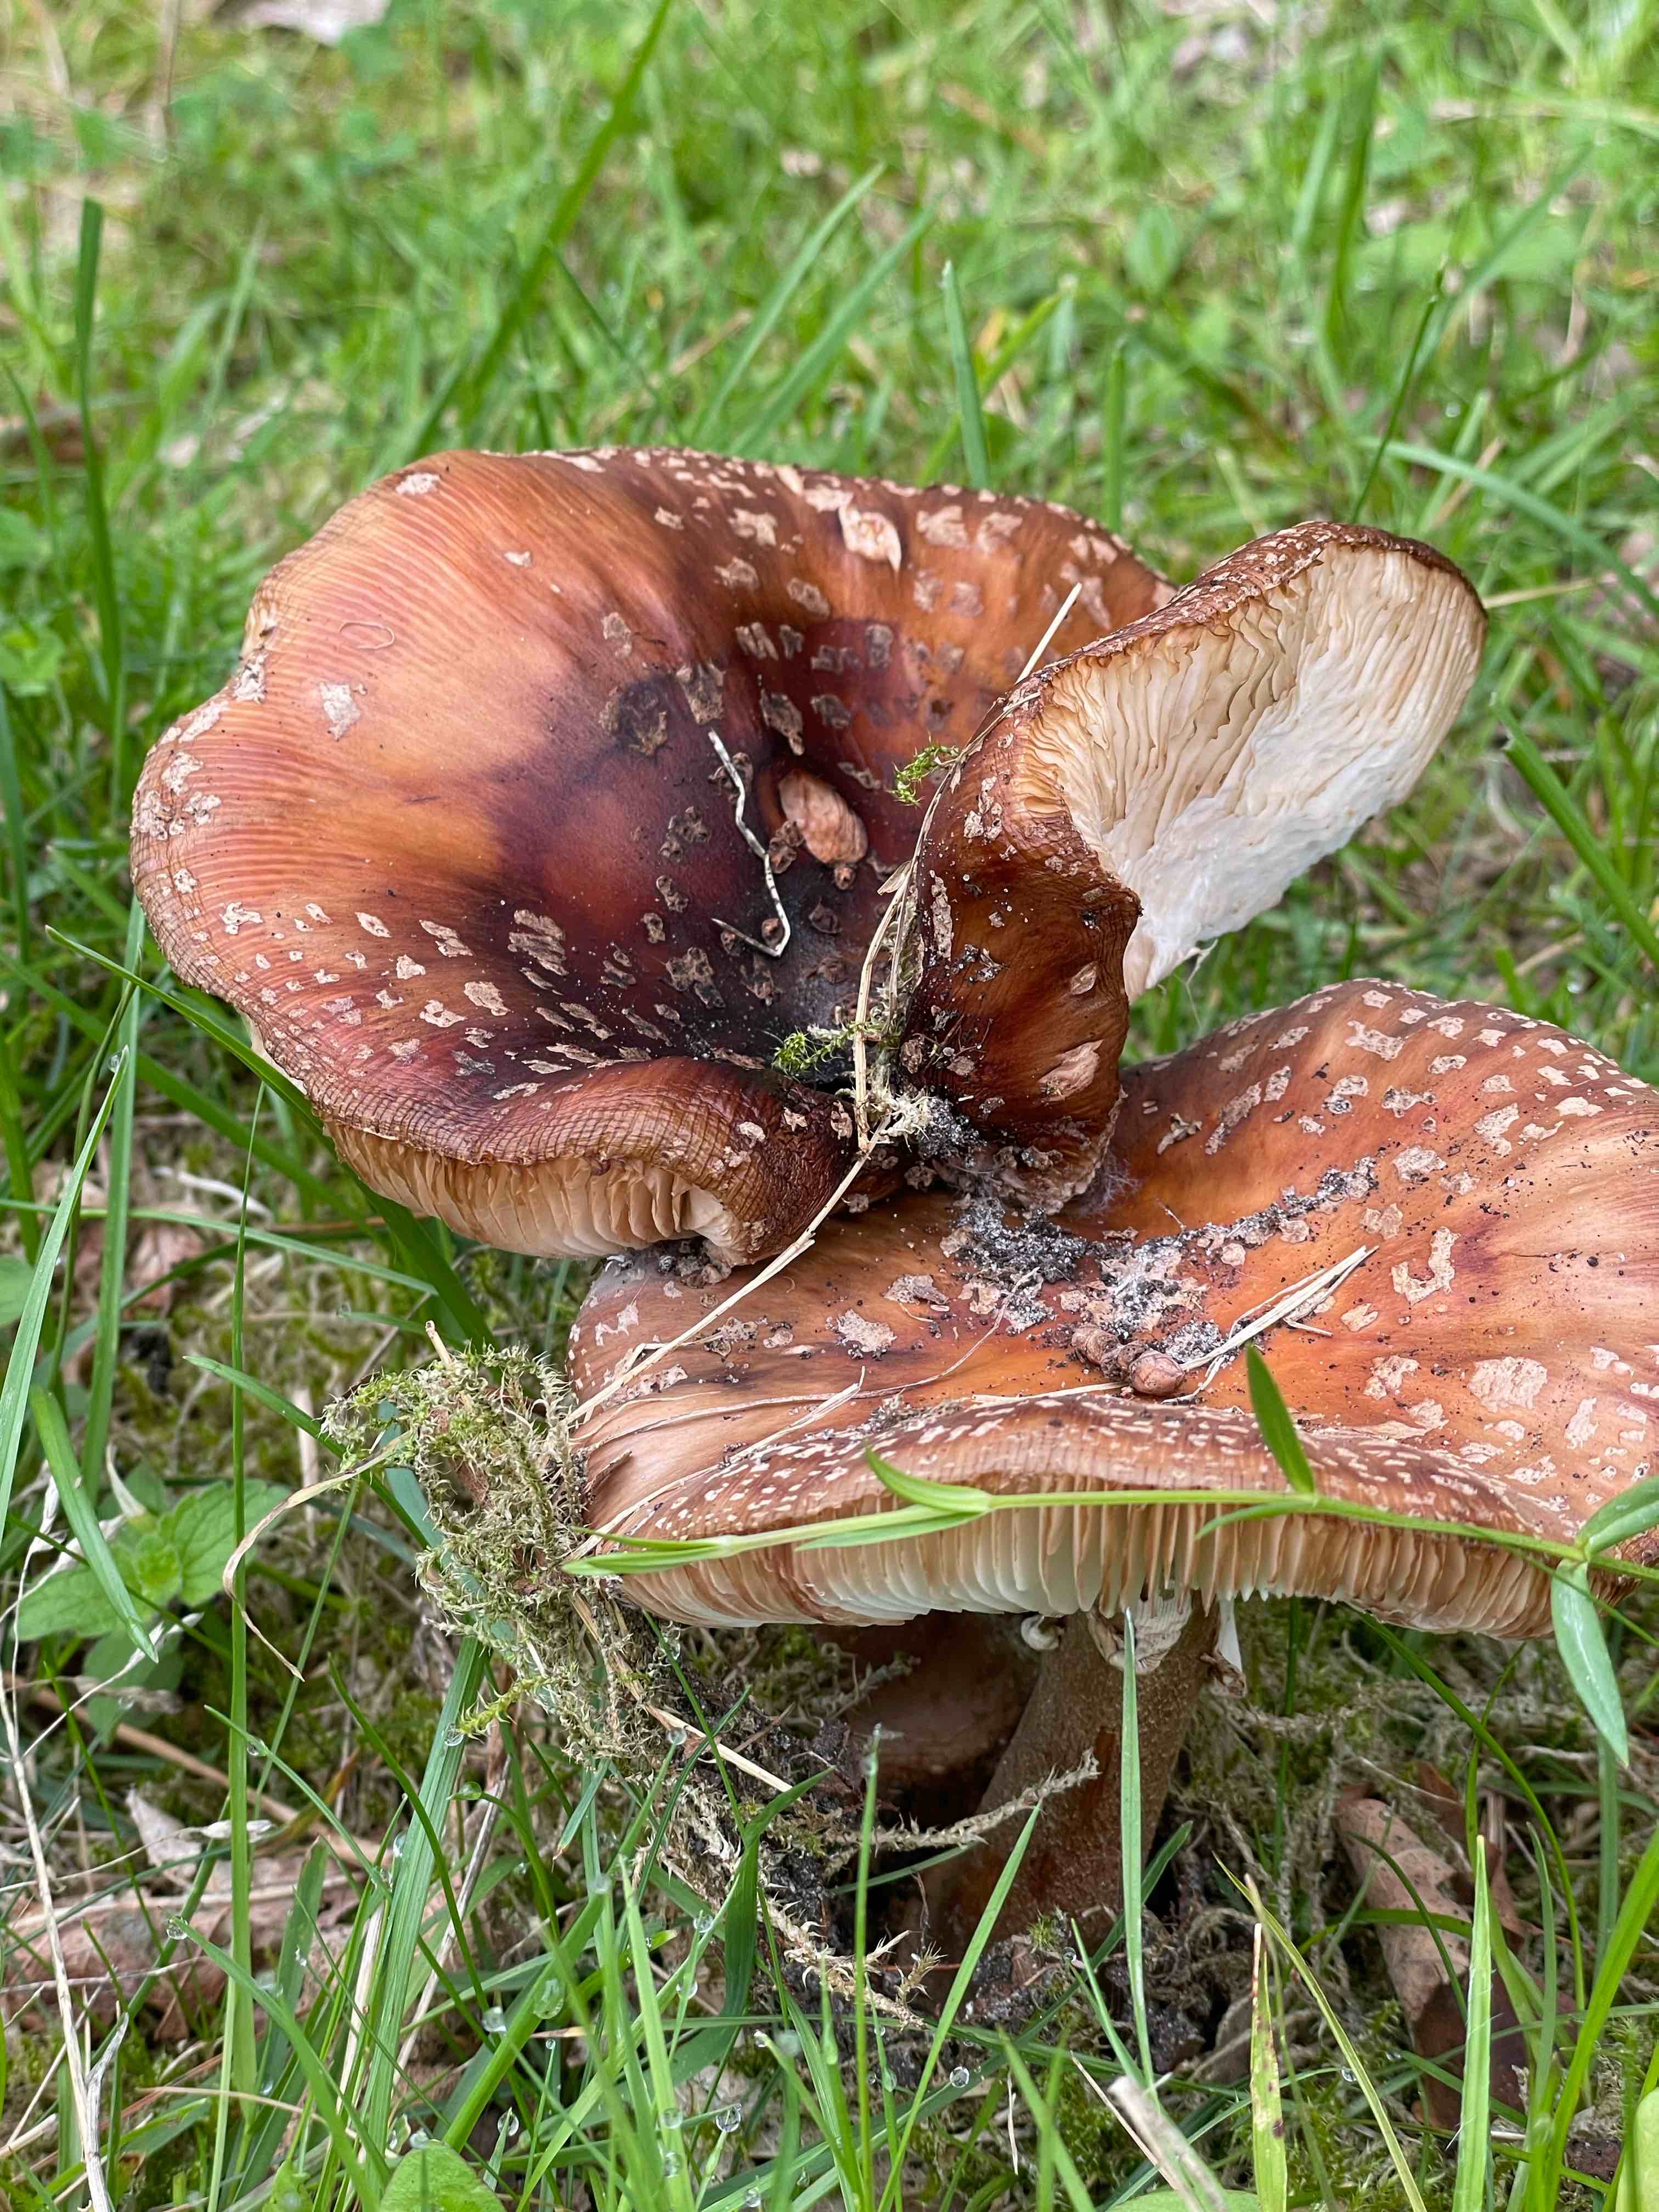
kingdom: Fungi
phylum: Basidiomycota
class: Agaricomycetes
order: Agaricales
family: Amanitaceae
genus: Amanita
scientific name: Amanita rubescens
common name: rødmende fluesvamp
